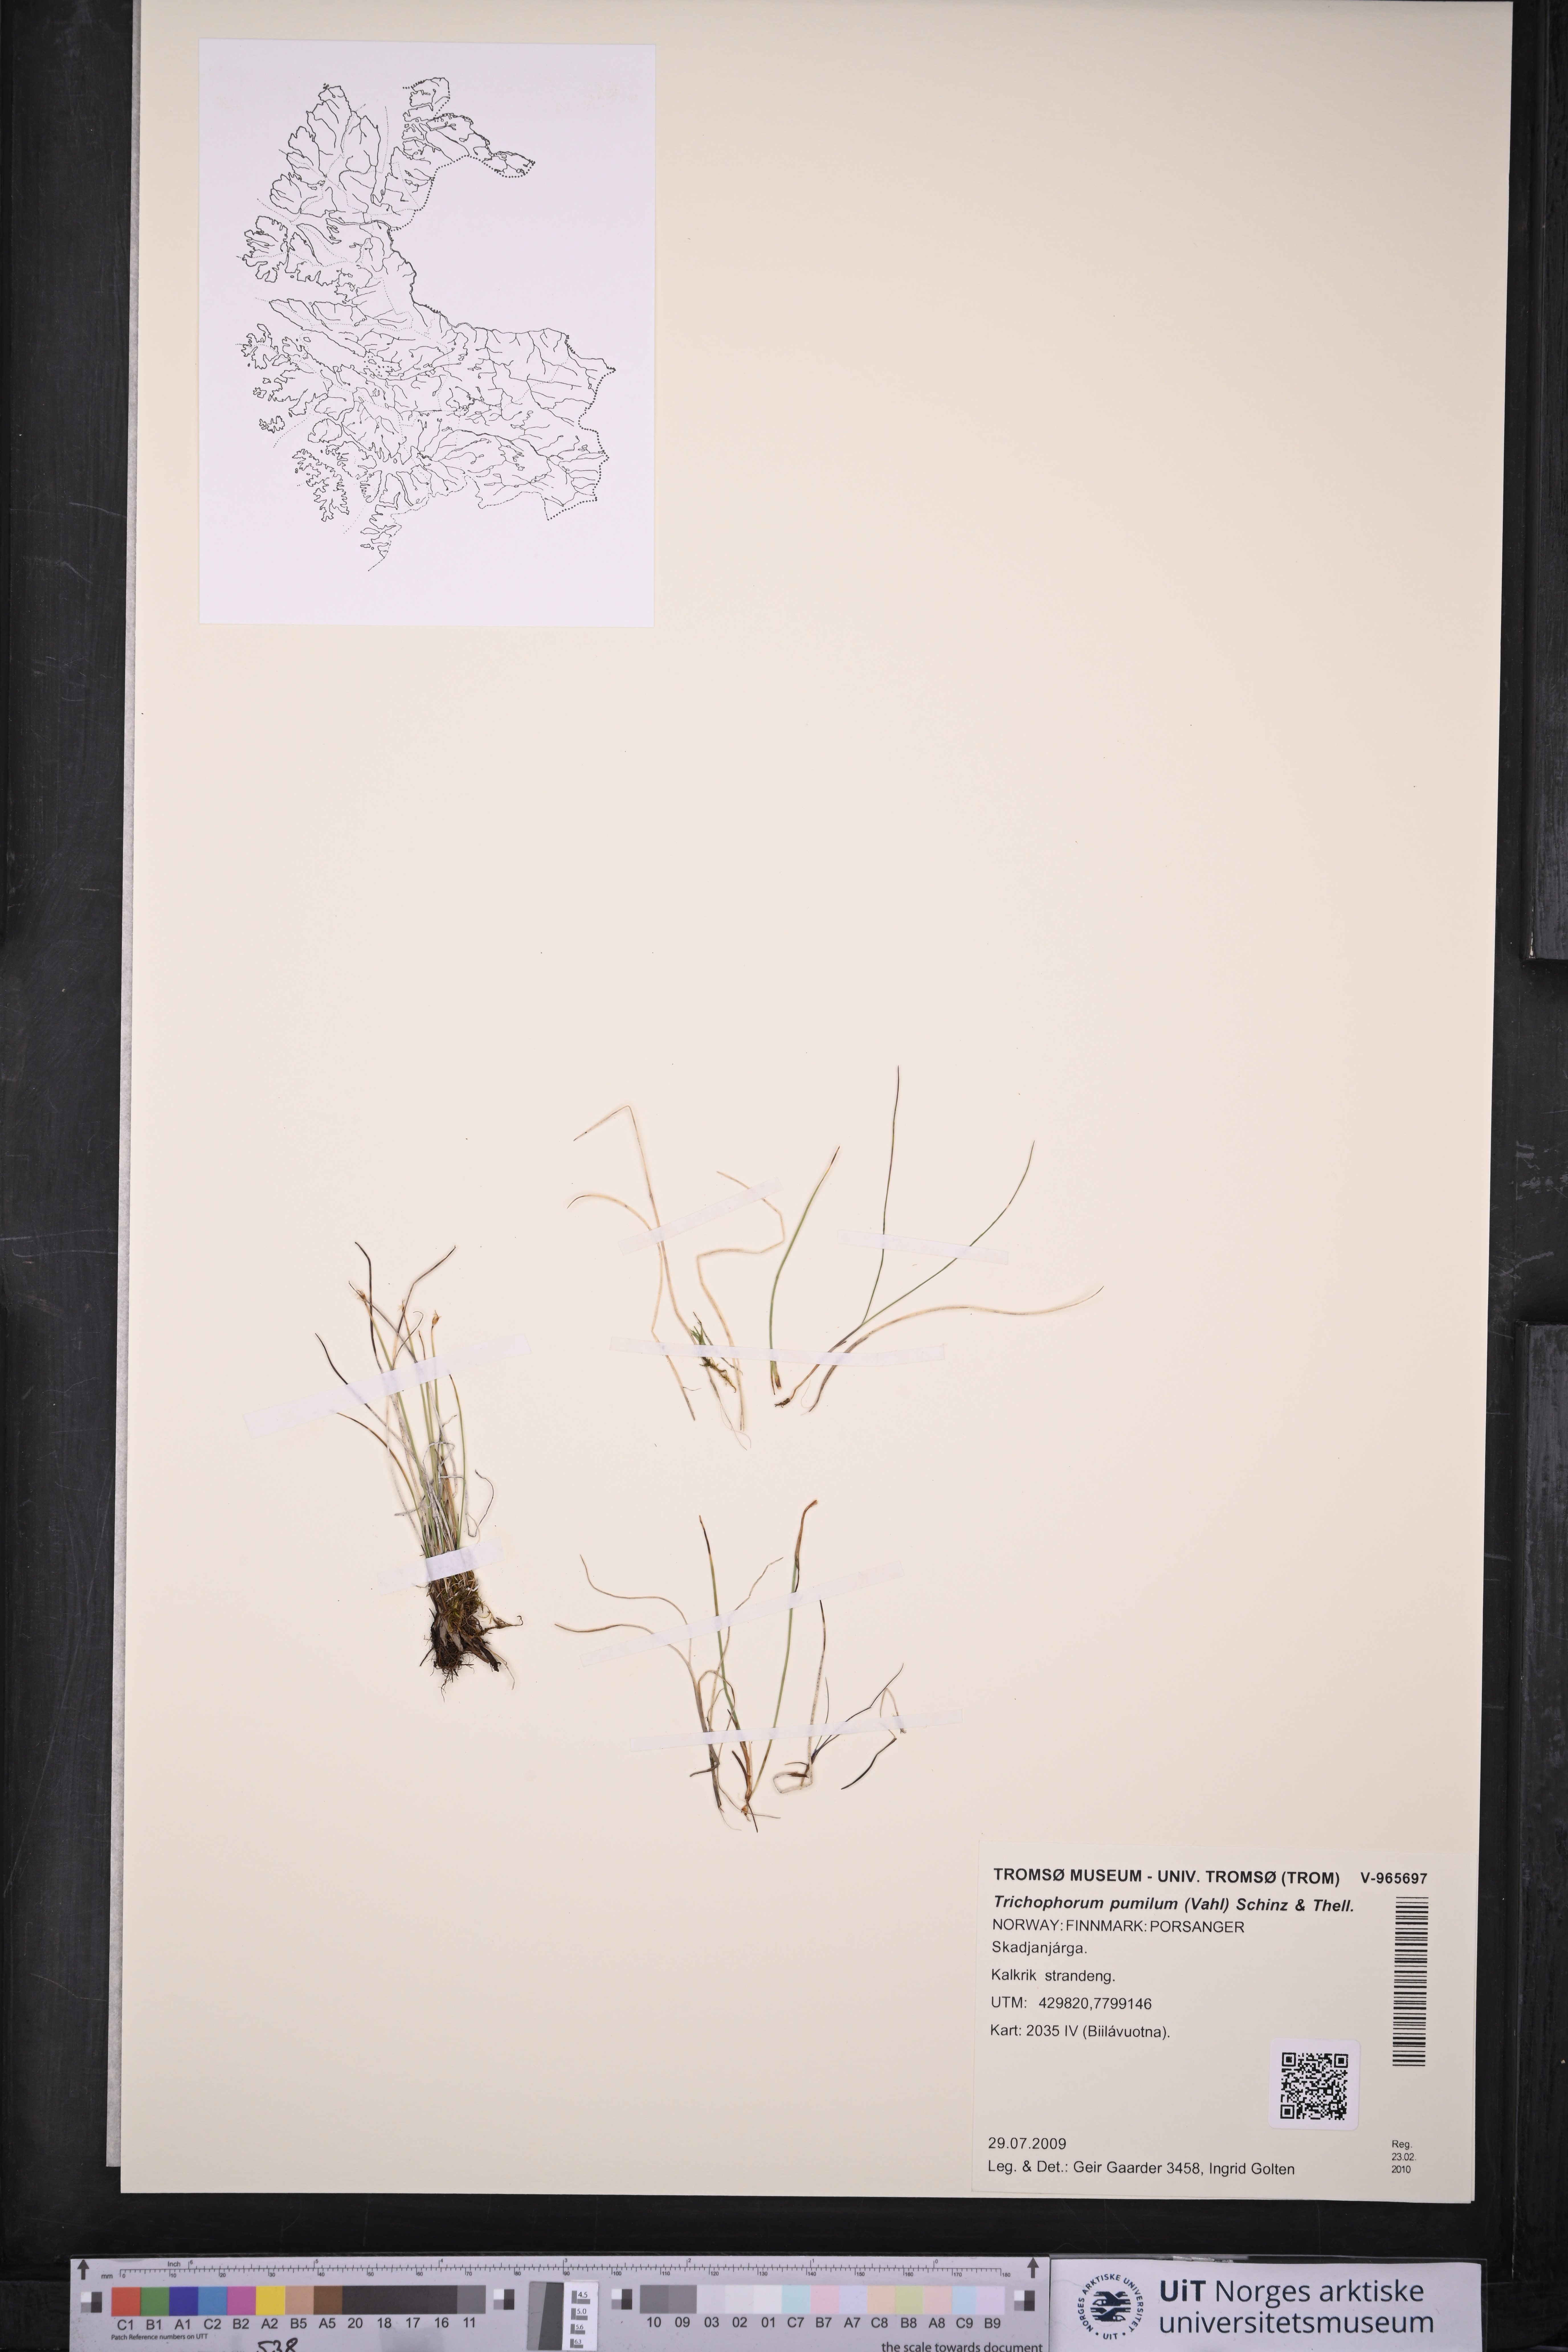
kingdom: Plantae
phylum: Tracheophyta
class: Liliopsida
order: Poales
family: Cyperaceae
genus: Trichophorum
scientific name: Trichophorum pumilum
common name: Rolland's bulrush
